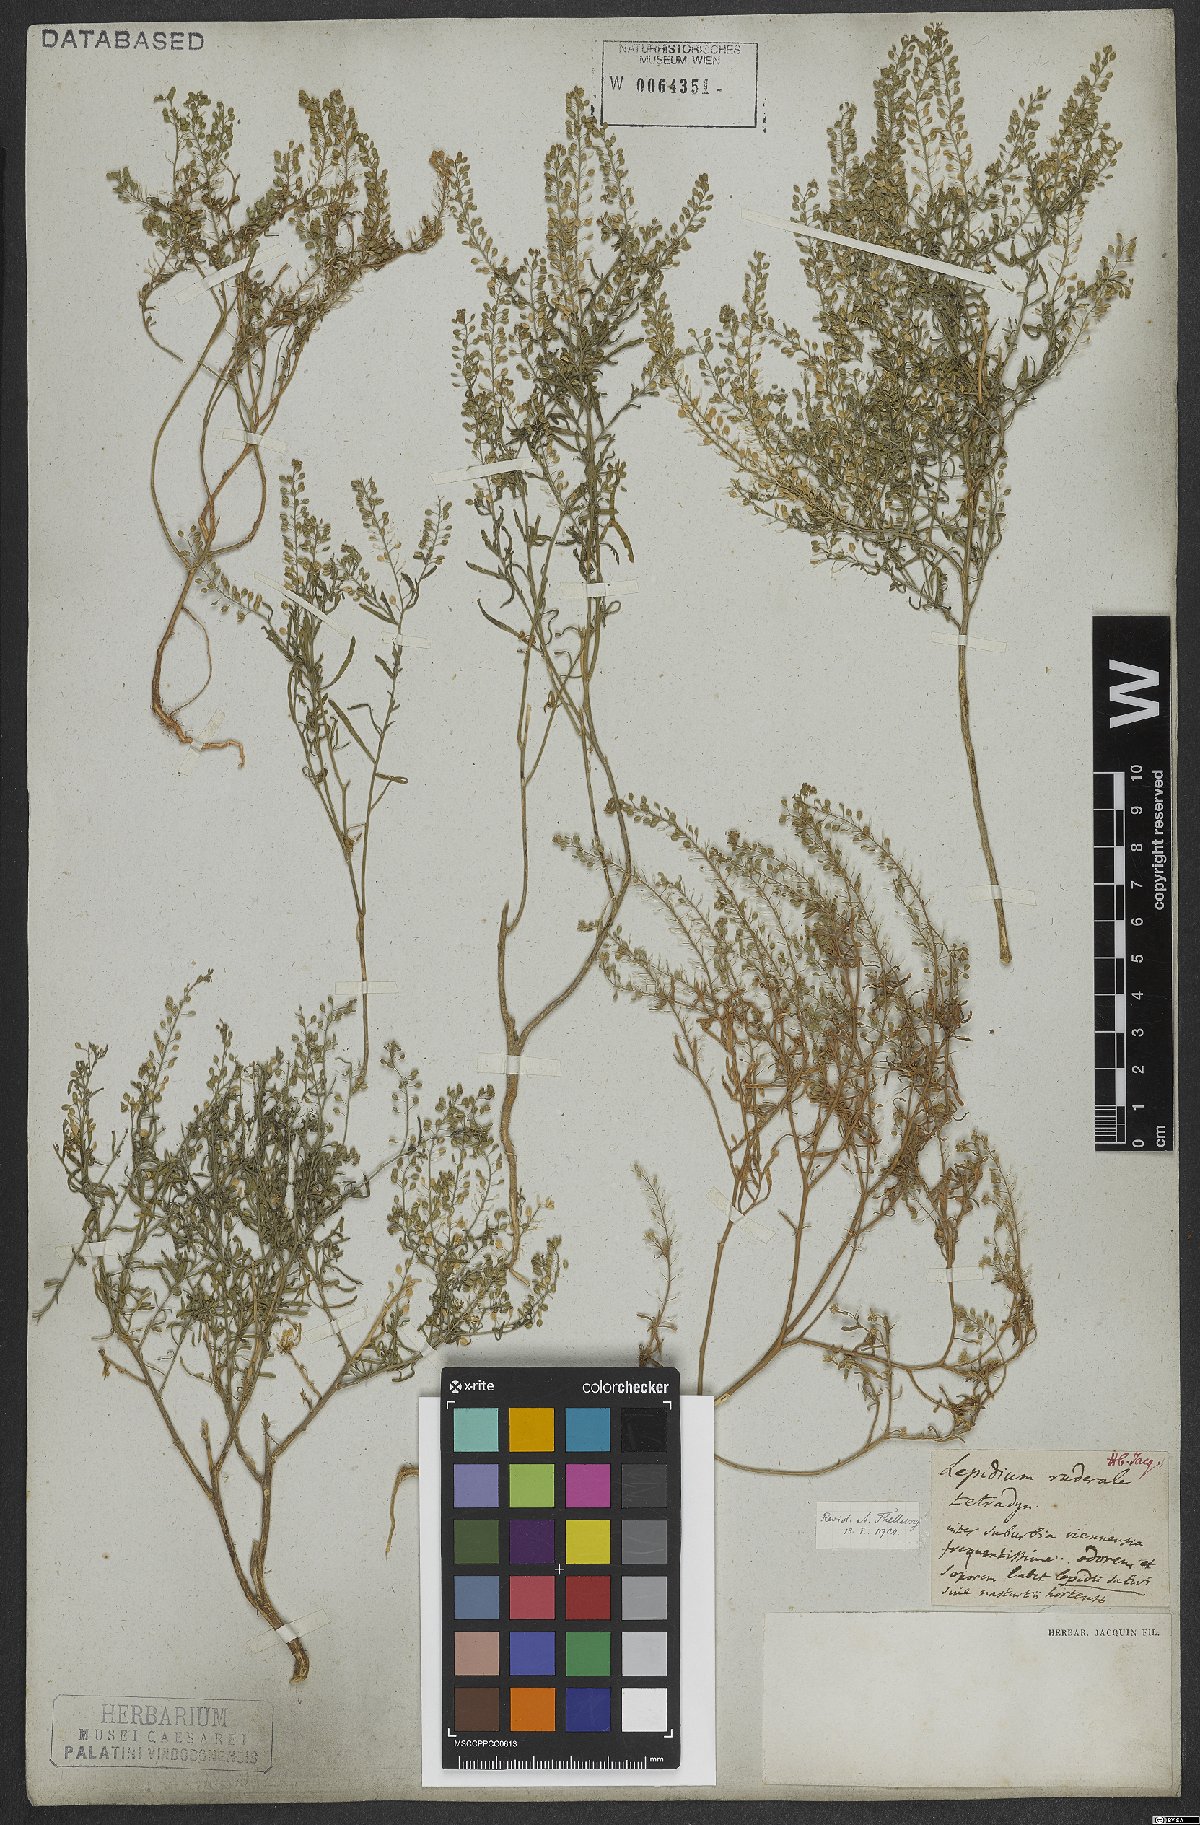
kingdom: Plantae
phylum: Tracheophyta
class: Magnoliopsida
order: Brassicales
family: Brassicaceae
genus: Lepidium
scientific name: Lepidium ruderale
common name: Narrow-leaved pepperwort
